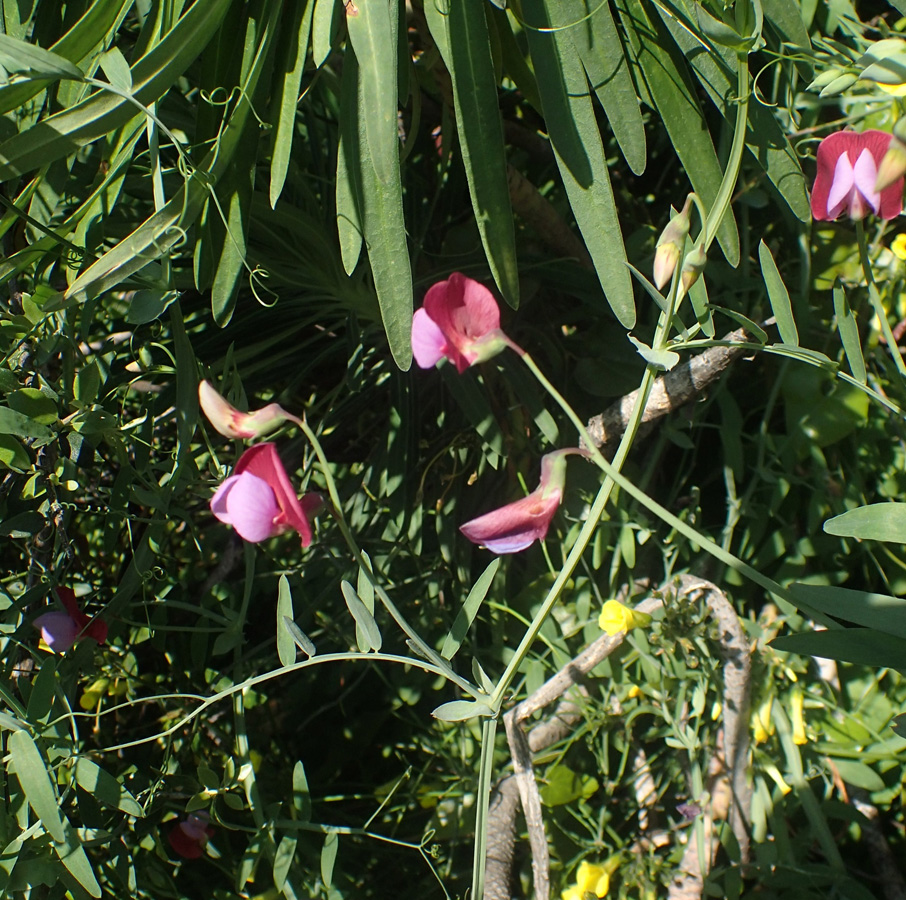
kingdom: Plantae
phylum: Tracheophyta
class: Magnoliopsida
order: Fabales
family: Fabaceae
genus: Lathyrus
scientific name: Lathyrus clymenum
